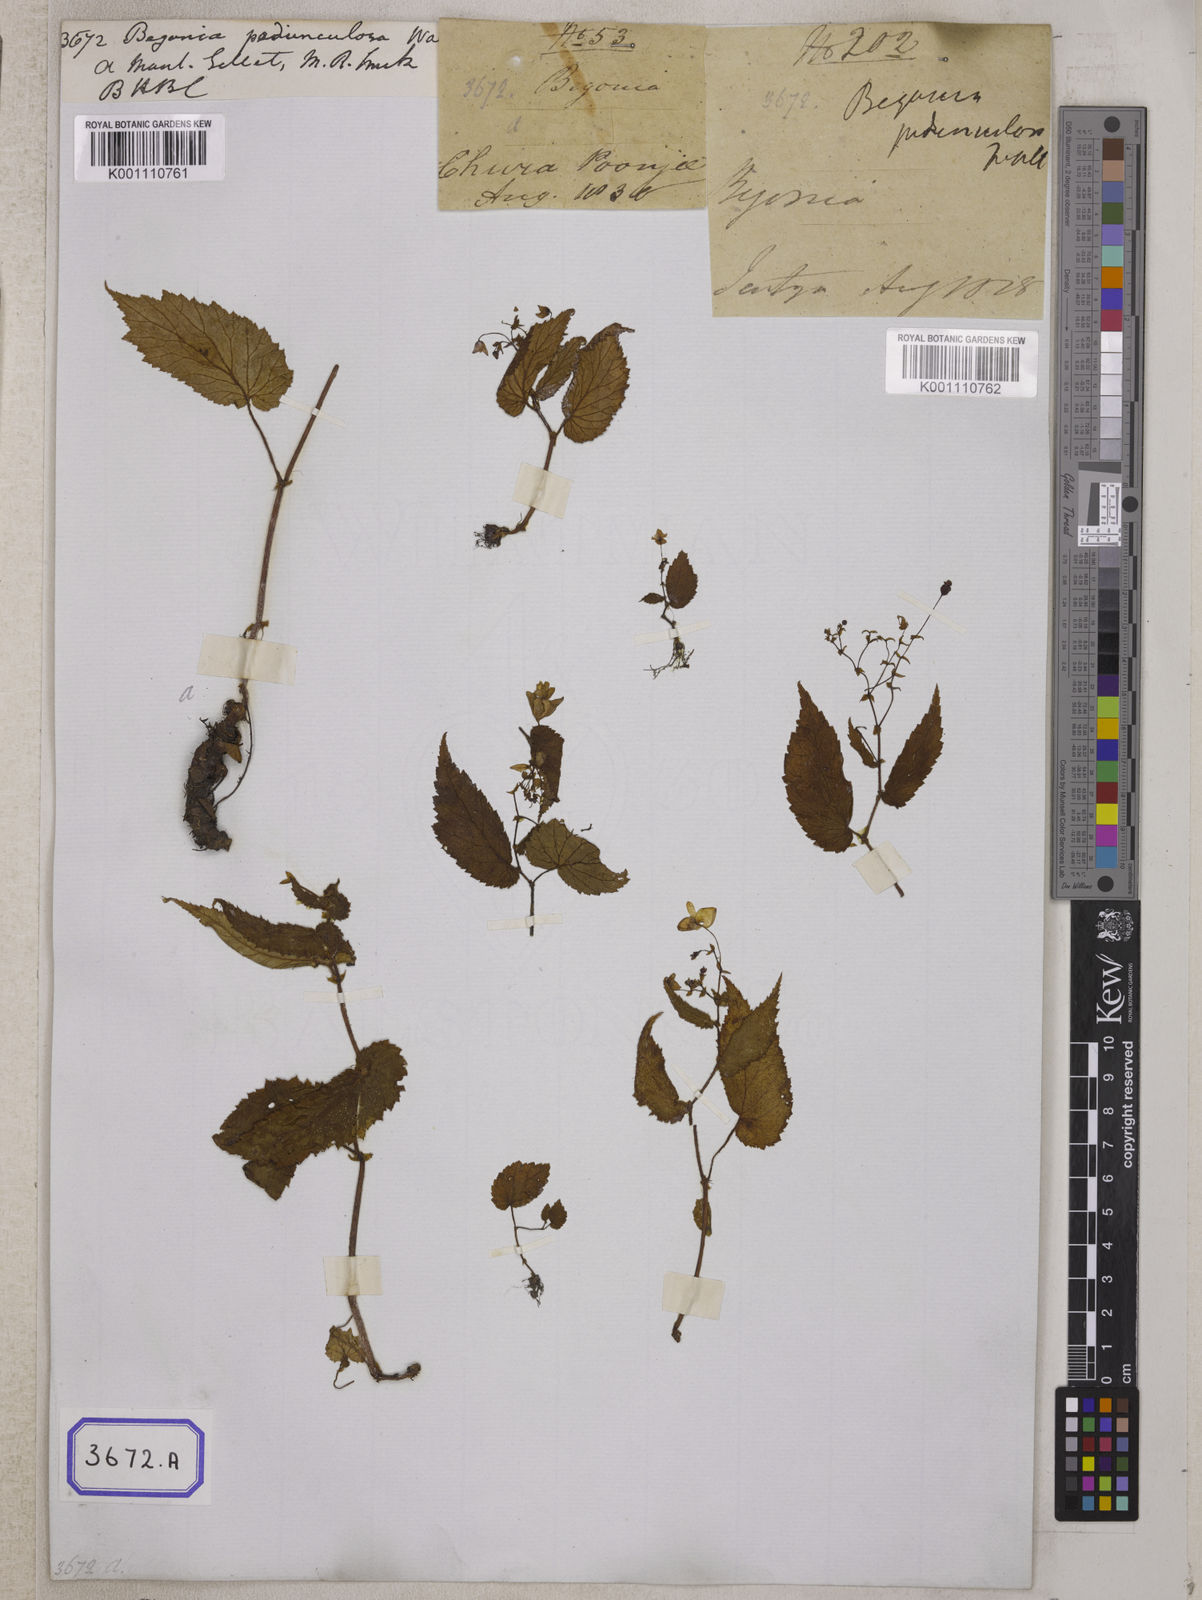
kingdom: Plantae
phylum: Tracheophyta
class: Magnoliopsida
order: Cucurbitales
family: Begoniaceae
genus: Begonia
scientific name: Begonia pedunculosa
